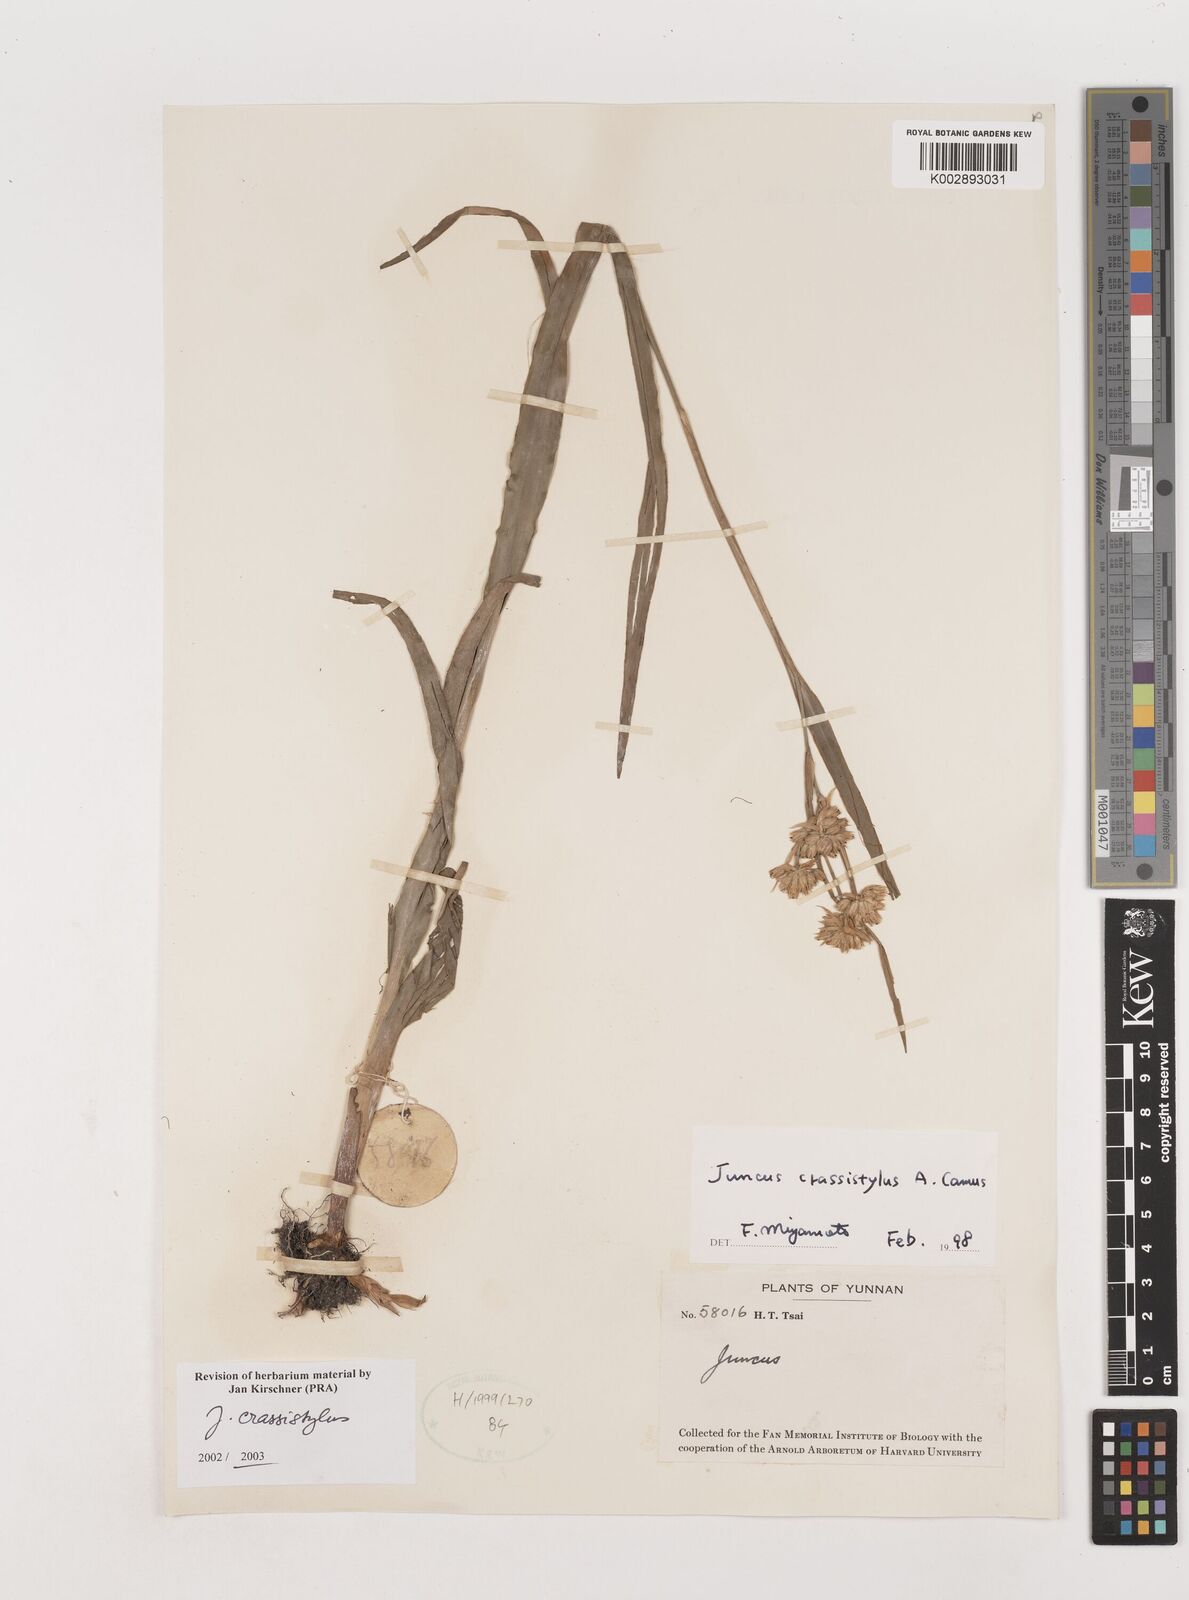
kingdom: Plantae
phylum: Tracheophyta
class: Liliopsida
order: Poales
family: Juncaceae
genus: Juncus
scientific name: Juncus crassistylus
